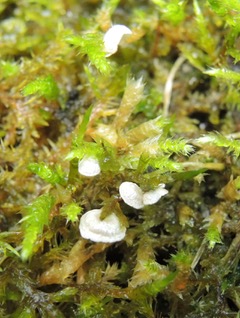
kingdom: Fungi
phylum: Basidiomycota
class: Agaricomycetes
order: Agaricales
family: Hygrophoraceae
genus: Arrhenia
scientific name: Arrhenia retiruga
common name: lille fontænehat
